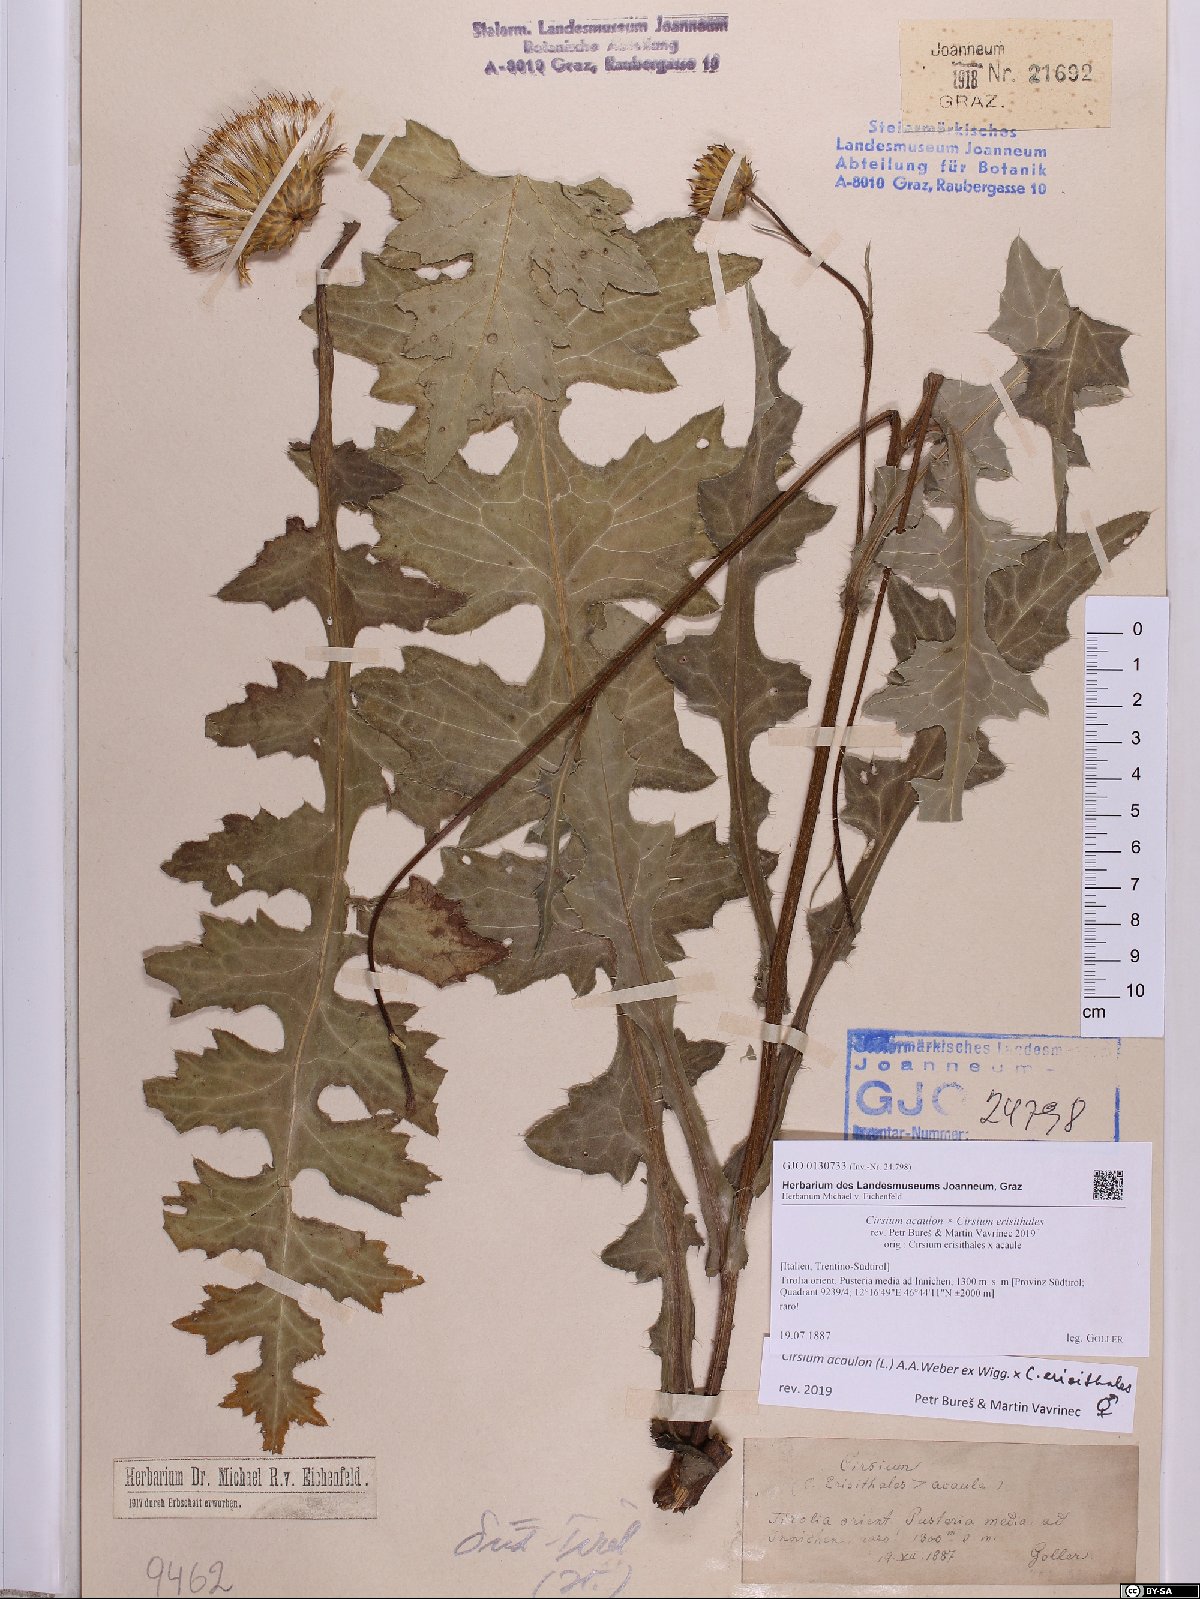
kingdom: Plantae
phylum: Tracheophyta
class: Magnoliopsida
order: Asterales
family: Asteraceae
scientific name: Asteraceae
